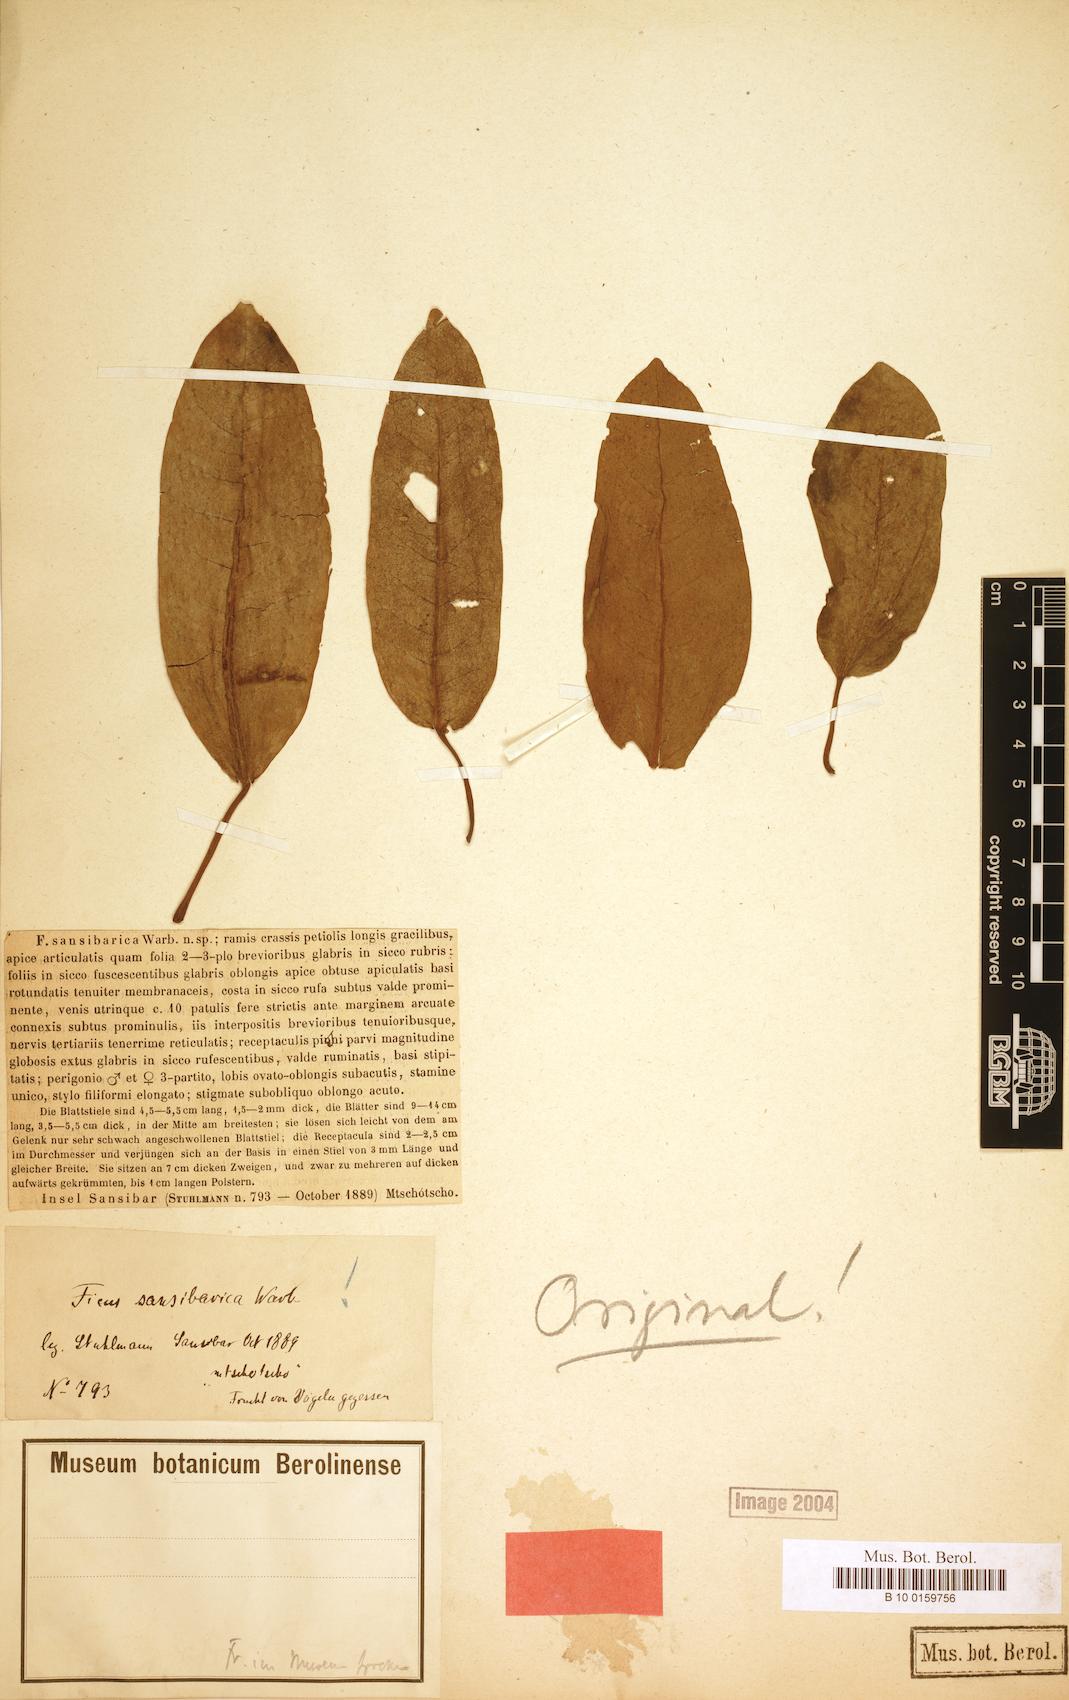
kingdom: Plantae
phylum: Tracheophyta
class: Magnoliopsida
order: Rosales
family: Moraceae
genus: Ficus
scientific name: Ficus sansibarica
